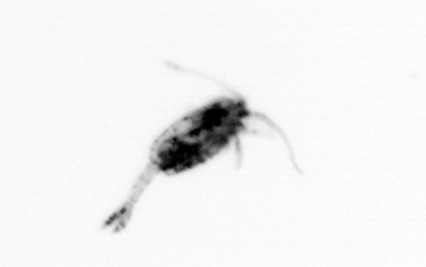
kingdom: Animalia
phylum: Arthropoda
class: Copepoda
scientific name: Copepoda
